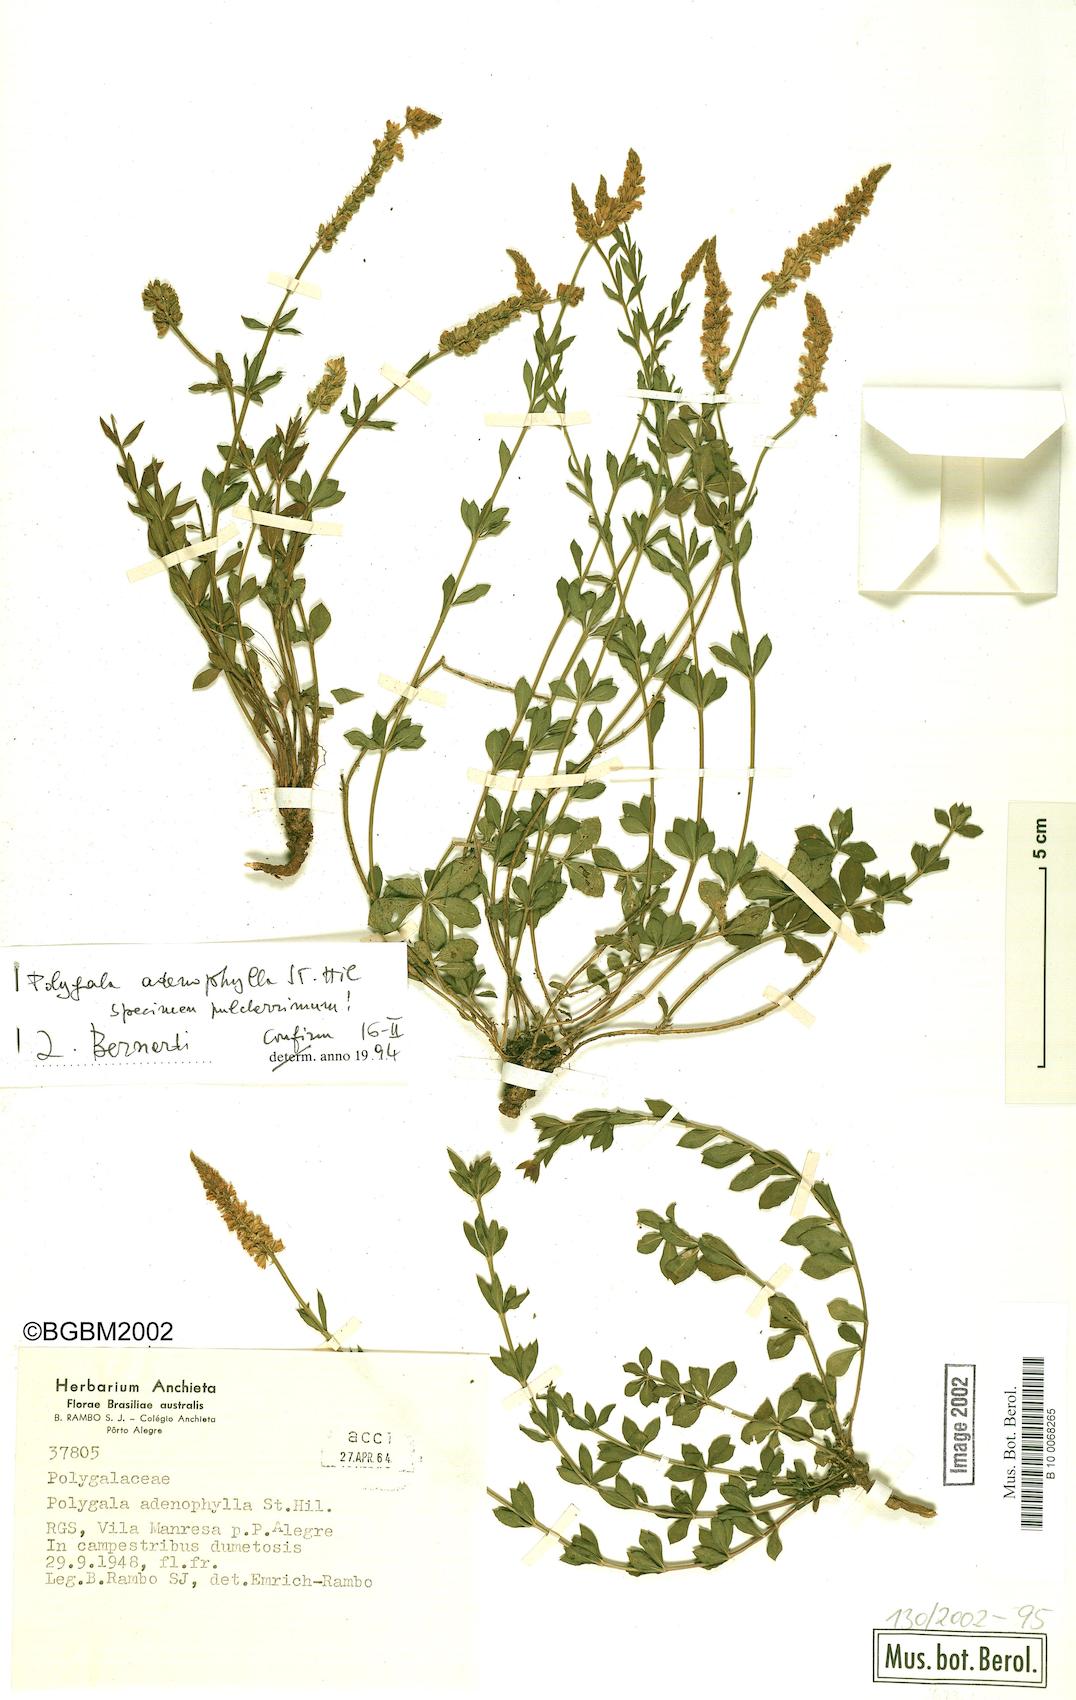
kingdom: Plantae
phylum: Tracheophyta
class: Magnoliopsida
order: Fabales
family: Polygalaceae
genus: Polygala
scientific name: Polygala adenophylla
